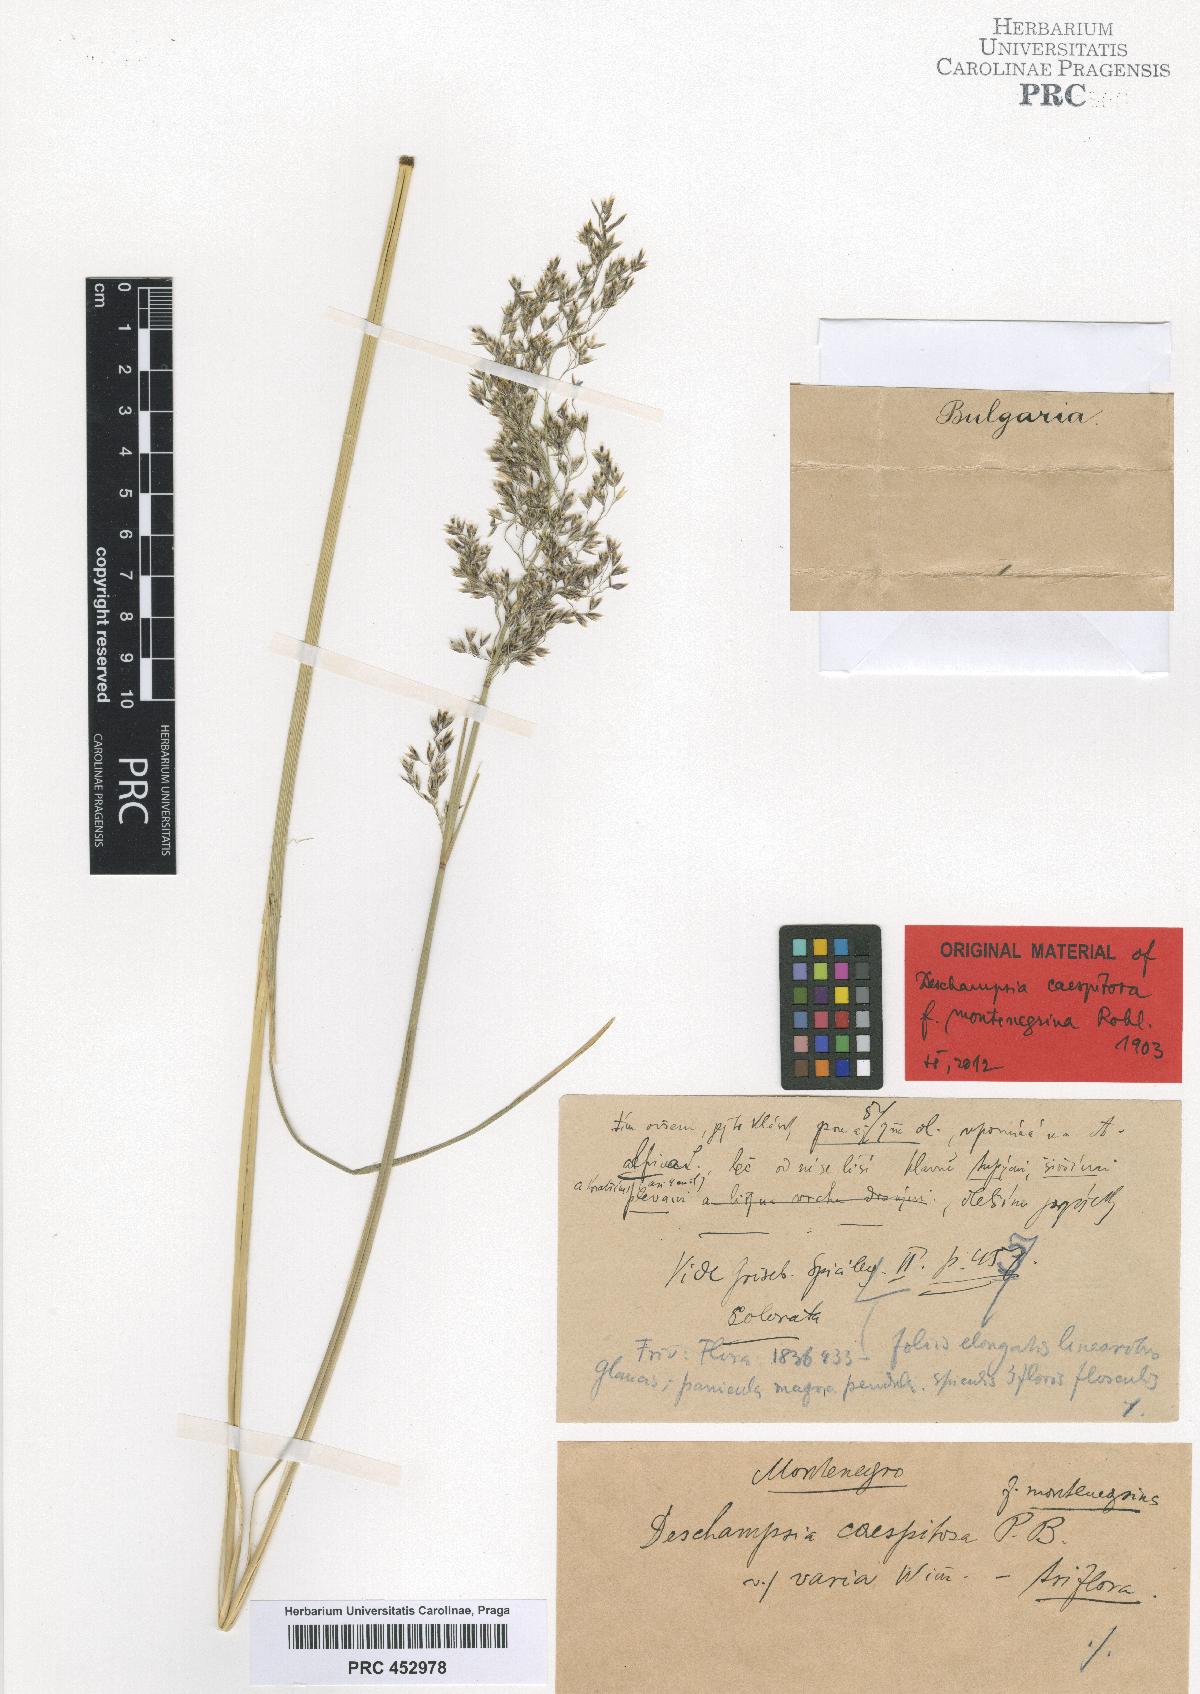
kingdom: Plantae
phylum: Tracheophyta
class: Liliopsida
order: Poales
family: Poaceae
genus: Deschampsia
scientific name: Deschampsia cespitosa
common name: Tufted hair-grass
